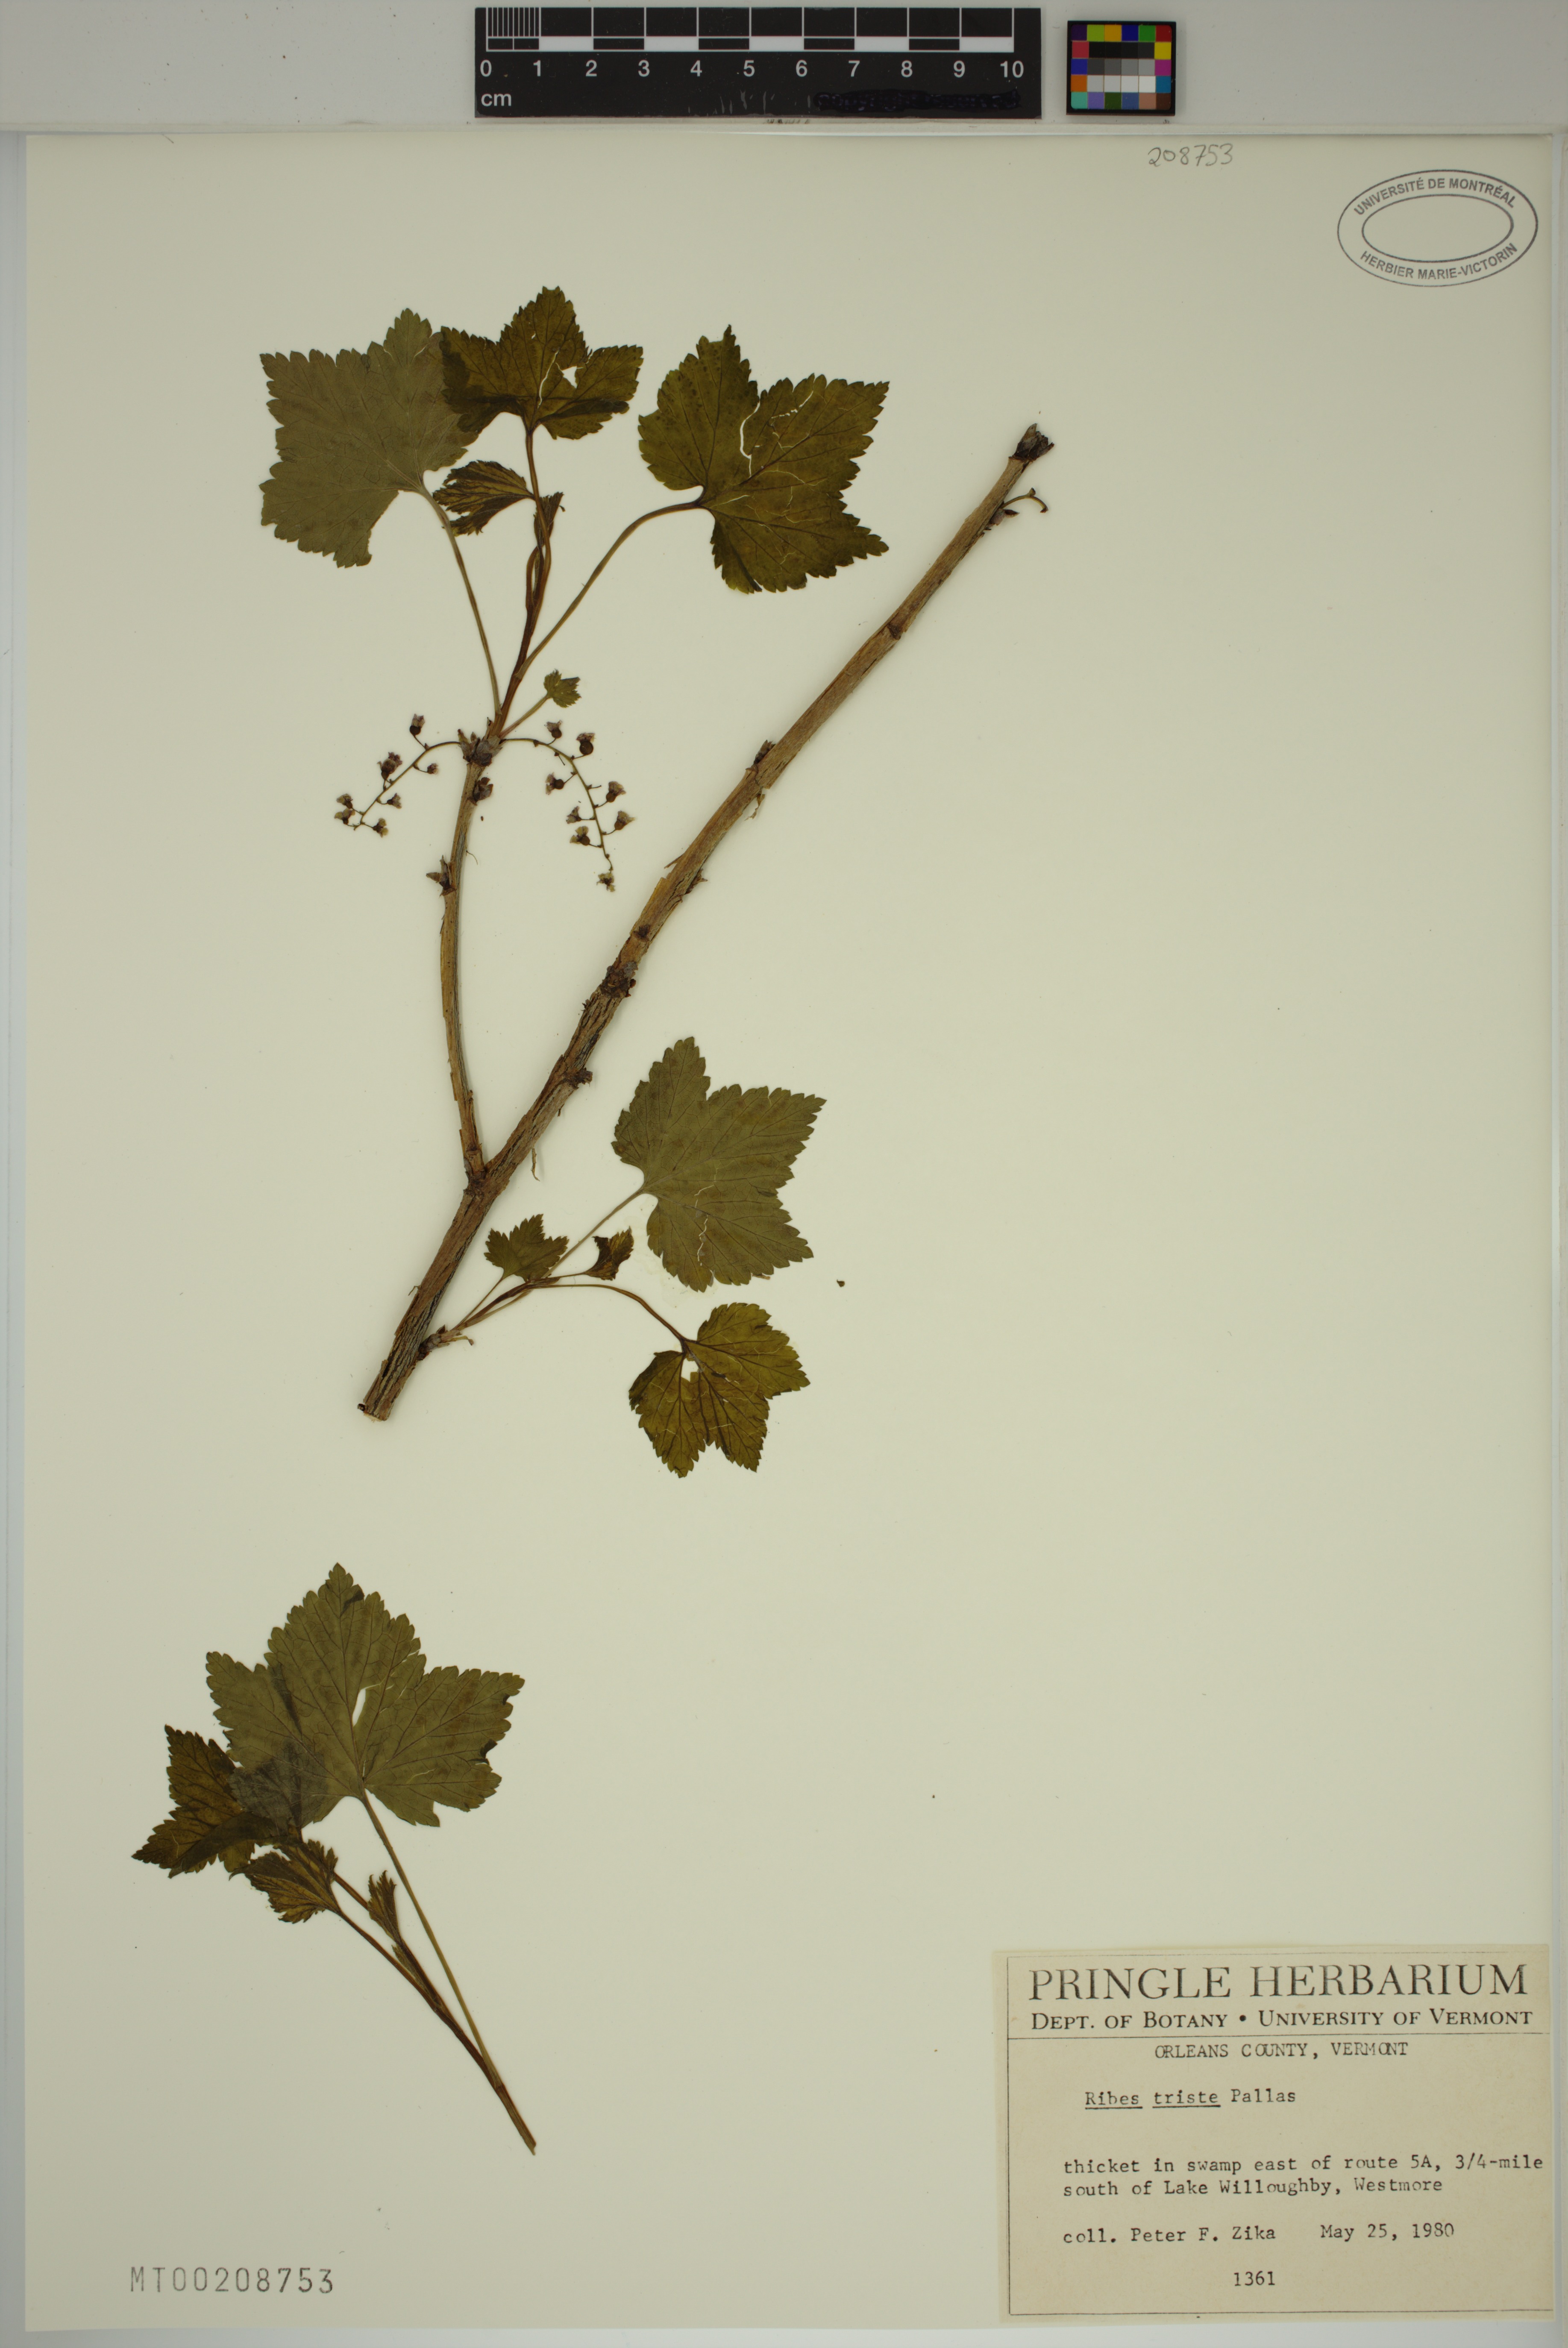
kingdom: Plantae
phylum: Tracheophyta
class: Magnoliopsida
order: Saxifragales
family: Grossulariaceae
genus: Ribes
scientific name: Ribes triste
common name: Swamp red currant
